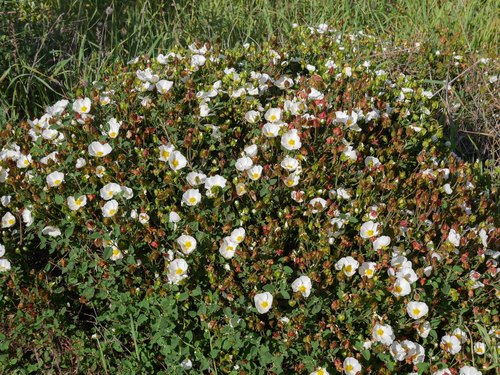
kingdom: Plantae
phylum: Tracheophyta
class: Magnoliopsida
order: Malvales
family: Cistaceae
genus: Cistus
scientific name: Cistus salviifolius
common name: Salvia cistus
